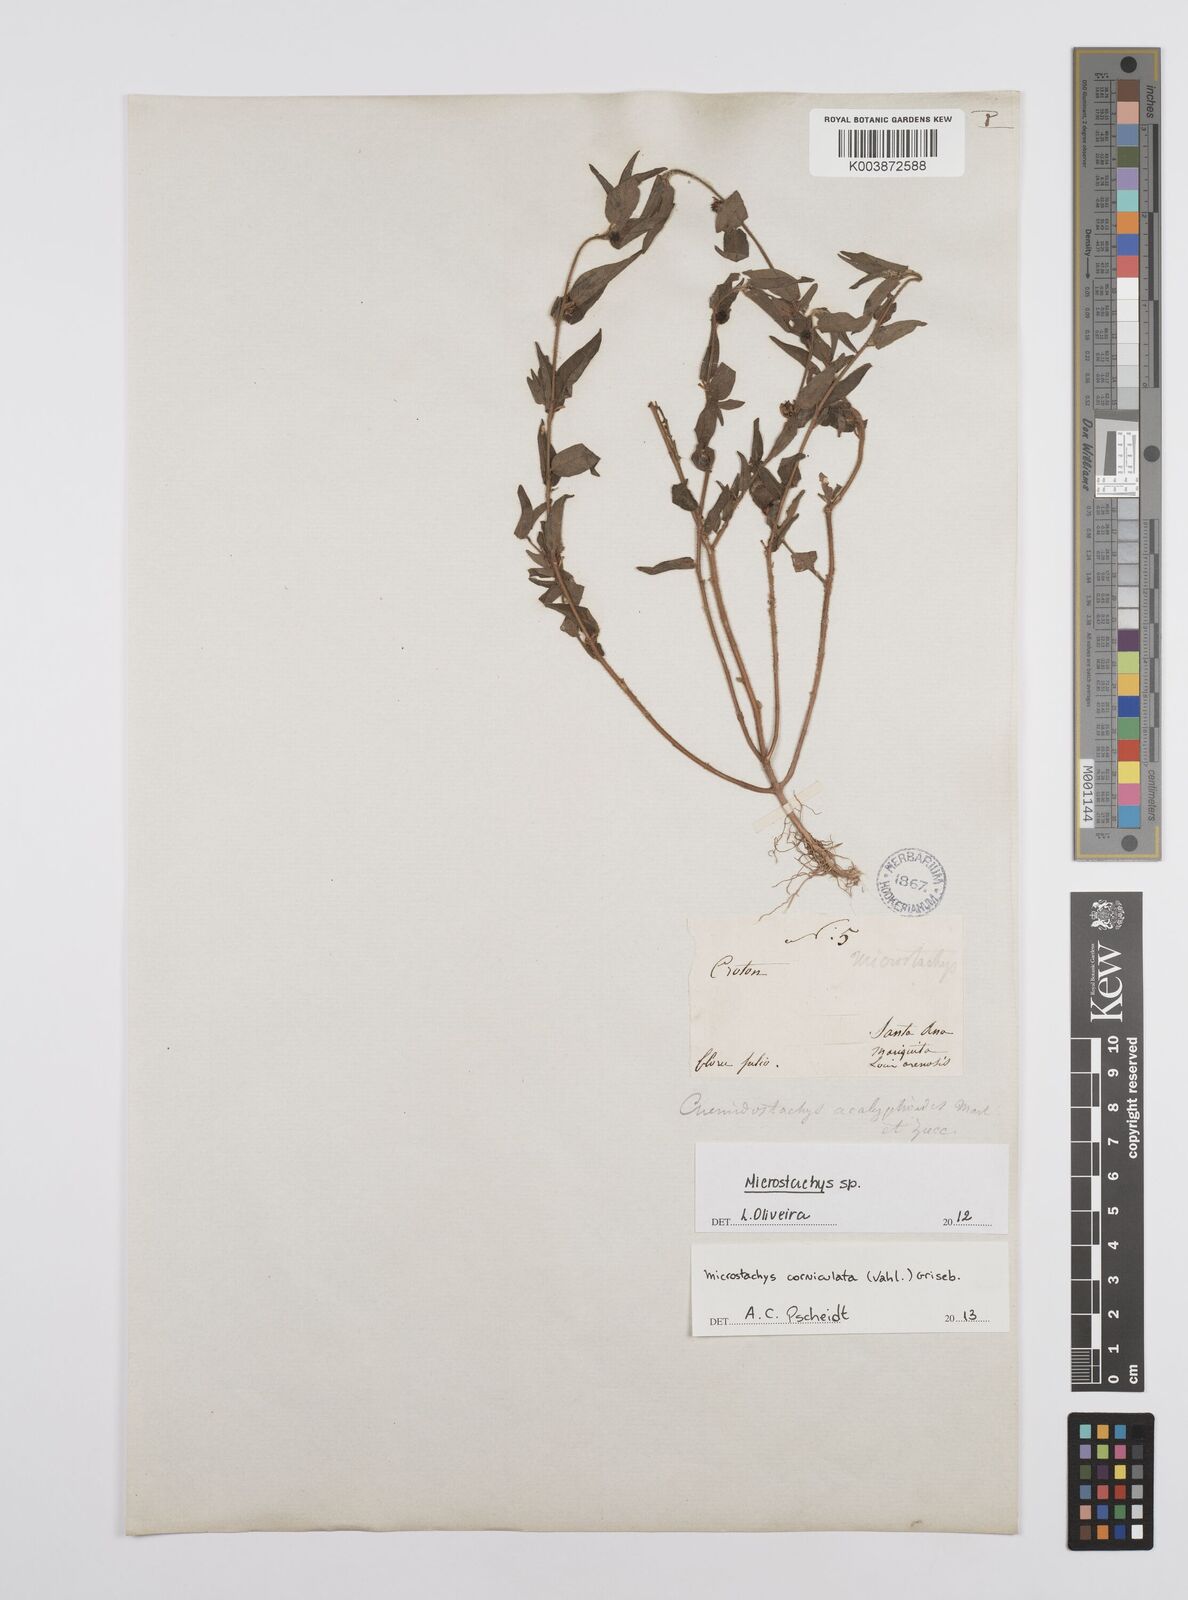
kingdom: Plantae
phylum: Tracheophyta
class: Magnoliopsida
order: Malpighiales
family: Euphorbiaceae
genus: Microstachys
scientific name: Microstachys
